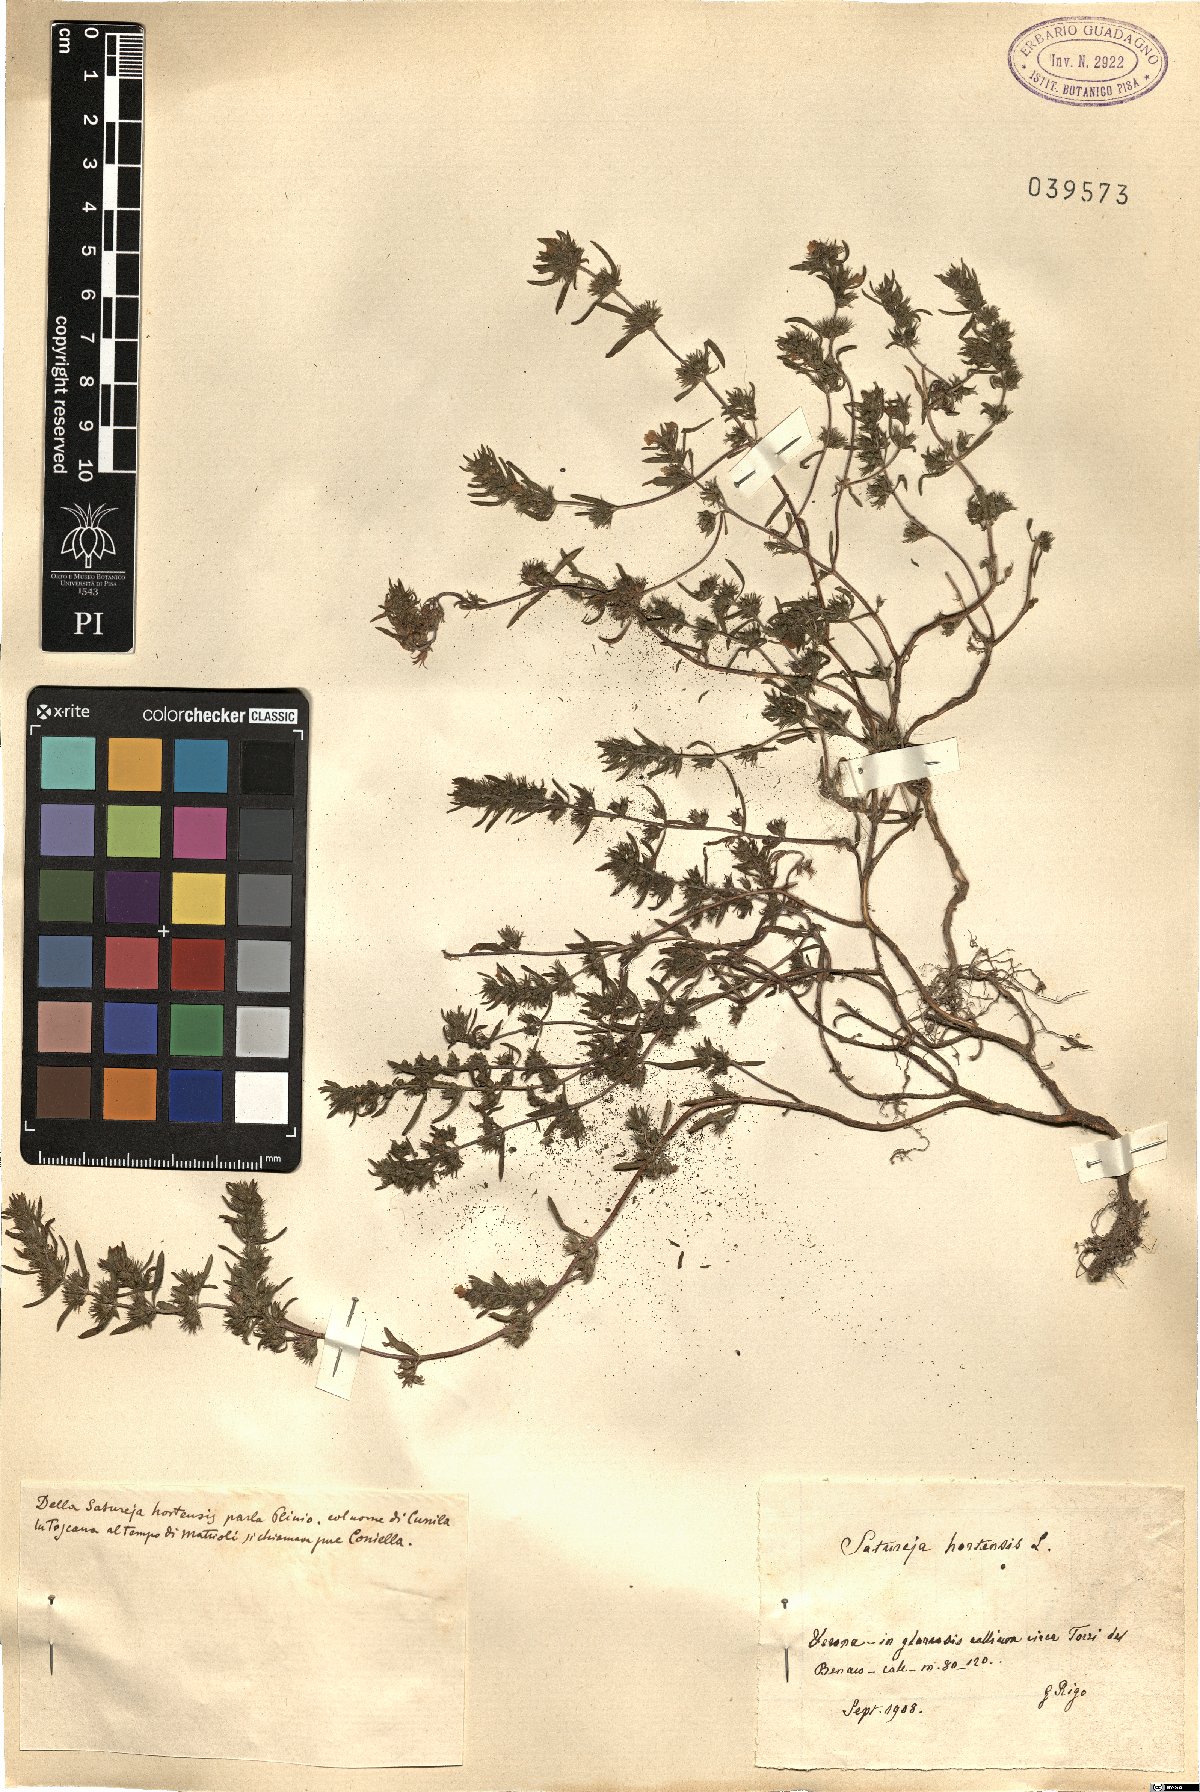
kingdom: Plantae
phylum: Tracheophyta
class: Magnoliopsida
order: Lamiales
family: Lamiaceae
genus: Satureja
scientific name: Satureja hortensis
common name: Summer savory
